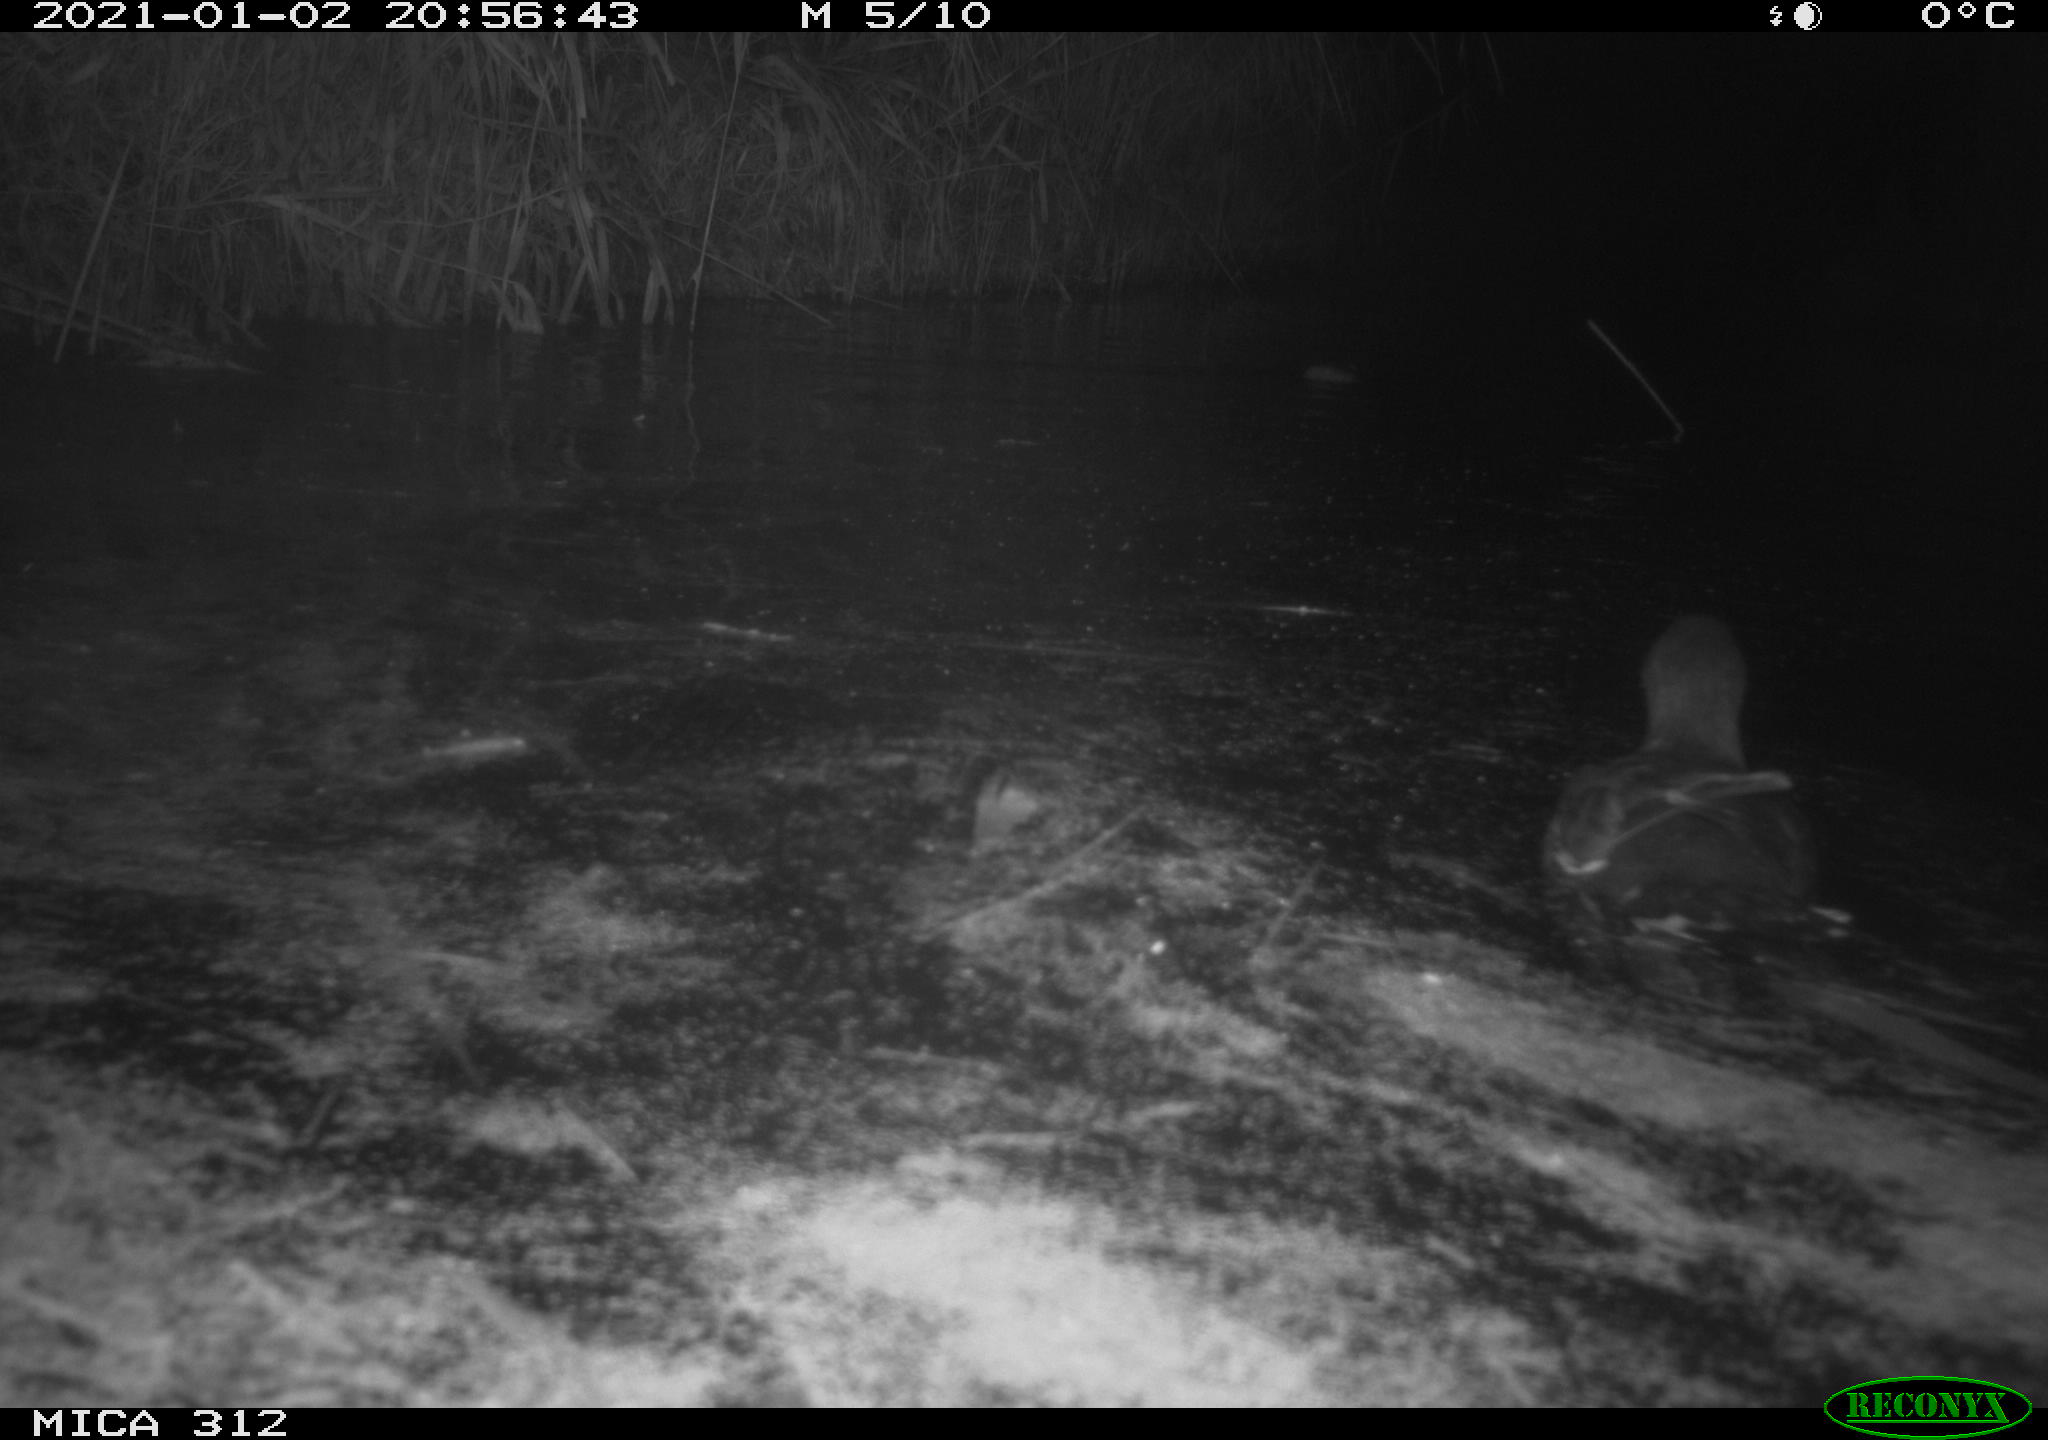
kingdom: Animalia
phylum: Chordata
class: Aves
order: Gruiformes
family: Rallidae
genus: Gallinula
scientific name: Gallinula chloropus
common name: Common moorhen
